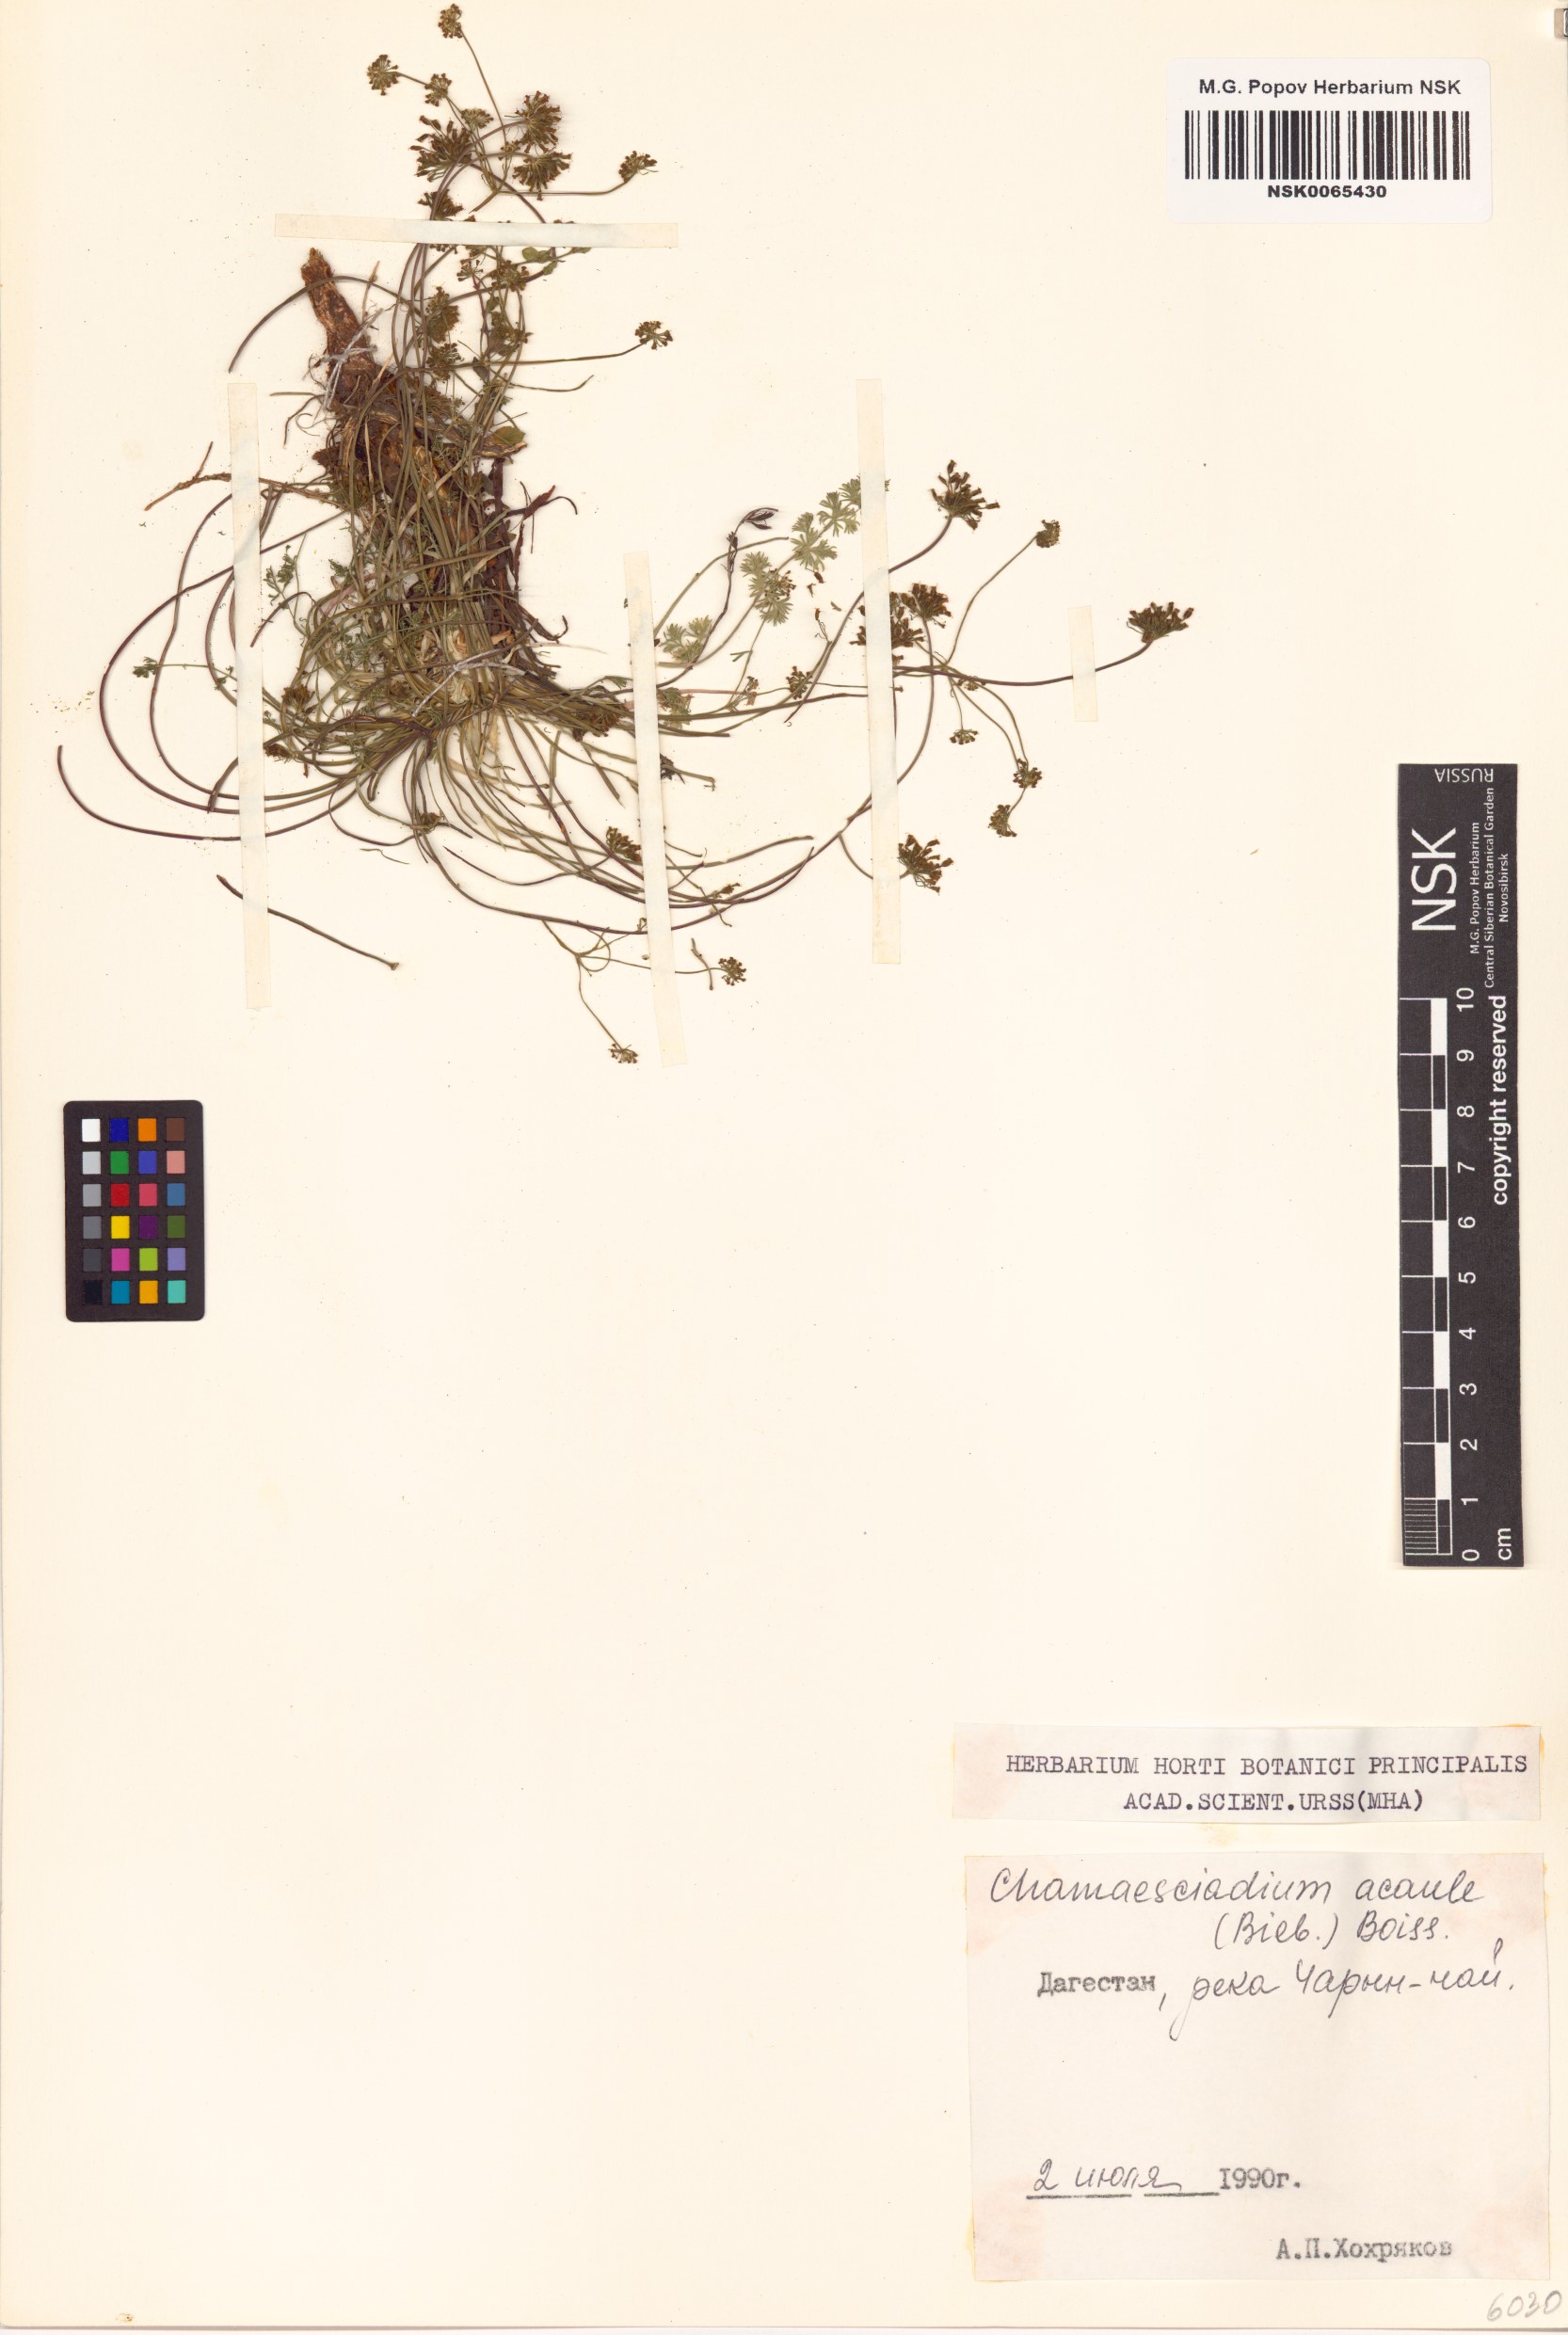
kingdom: Plantae
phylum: Tracheophyta
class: Magnoliopsida
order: Apiales
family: Apiaceae
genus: Chamaesciadium
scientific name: Chamaesciadium acaule
